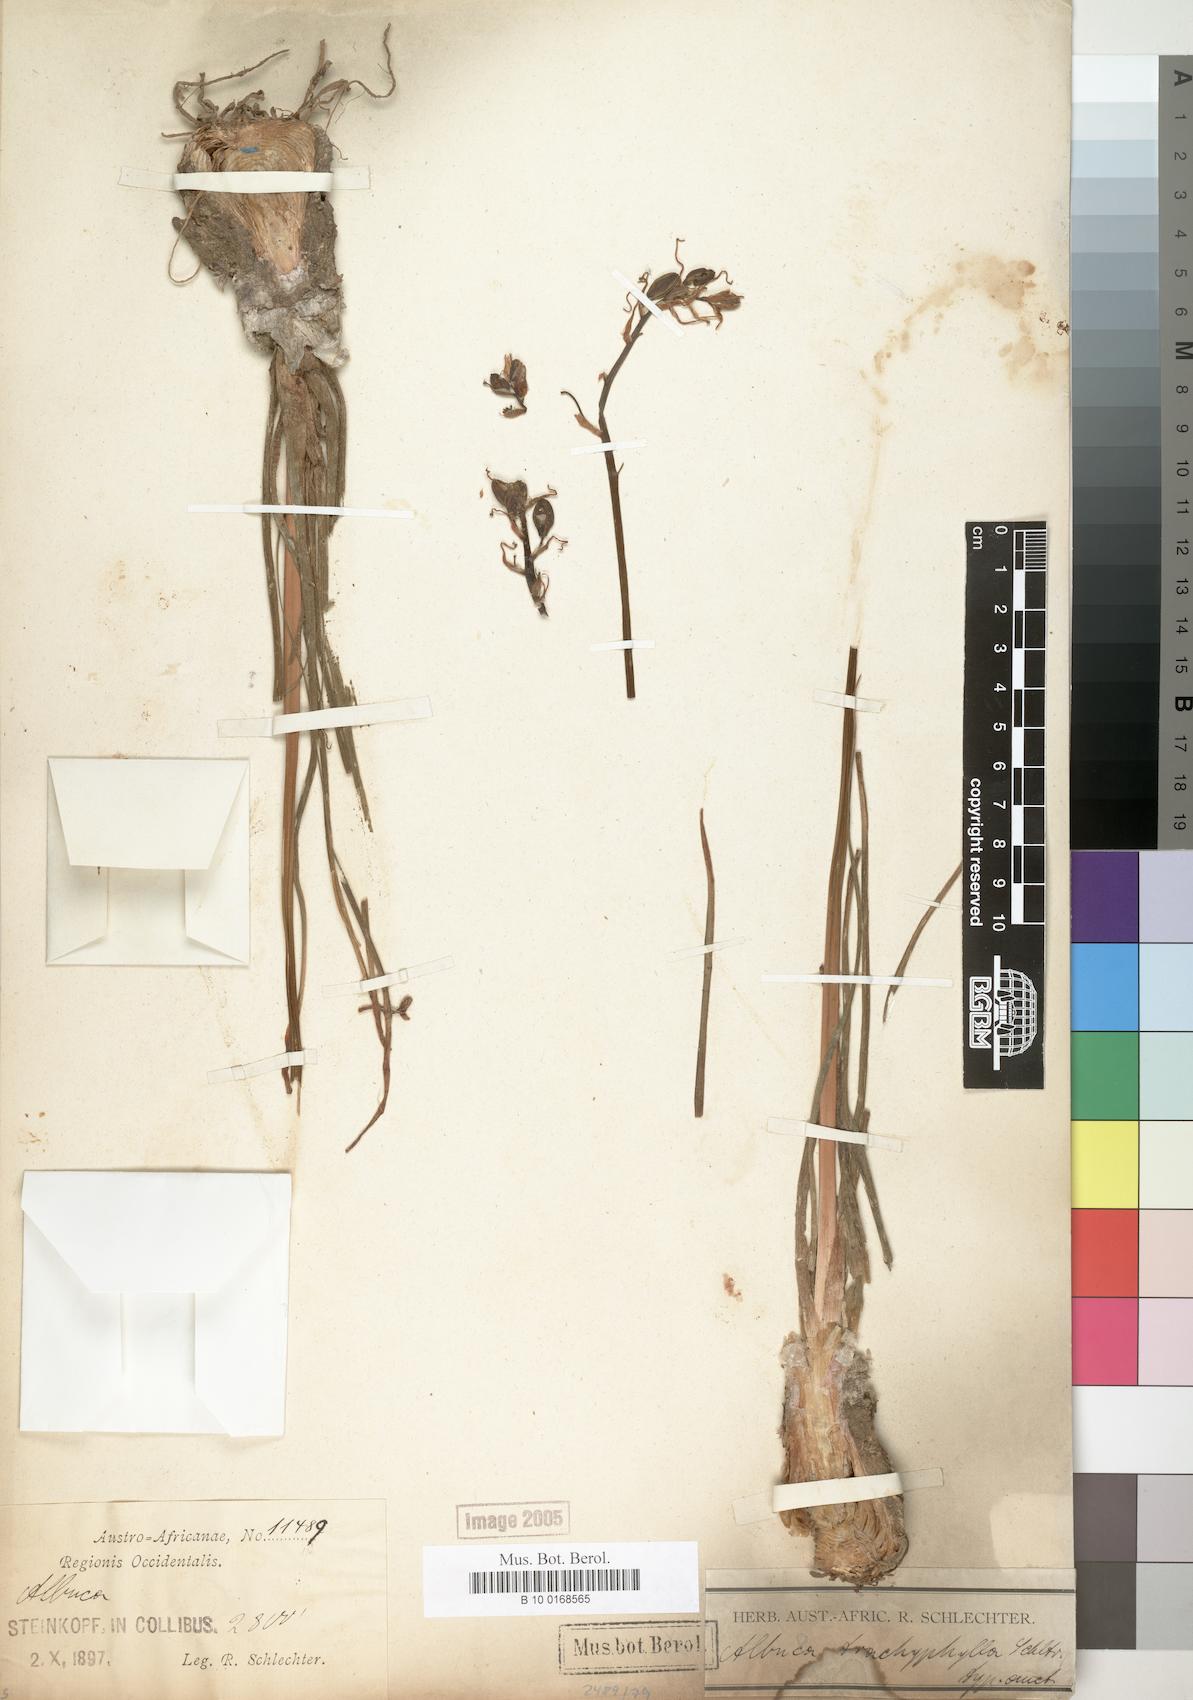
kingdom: Plantae
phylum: Tracheophyta
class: Liliopsida
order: Asparagales
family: Asparagaceae
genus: Albuca
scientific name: Albuca
